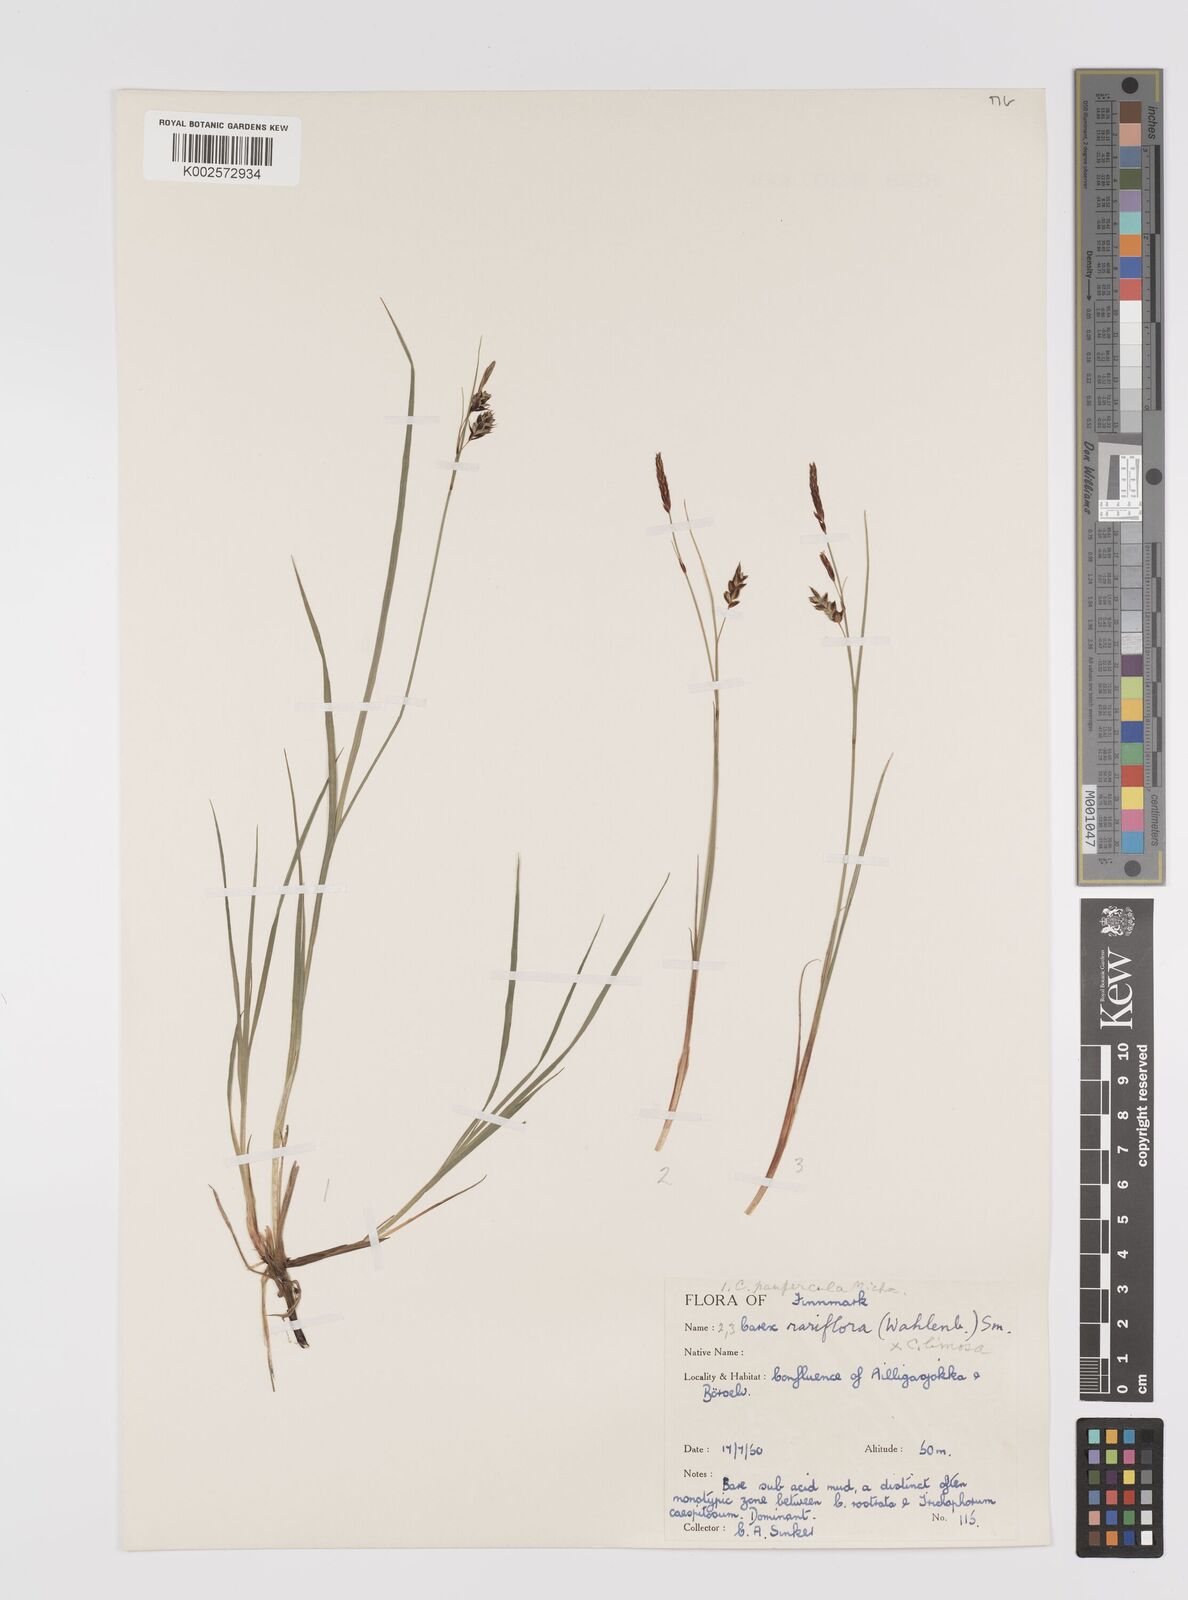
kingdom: Plantae
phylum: Tracheophyta
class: Liliopsida
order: Poales
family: Cyperaceae
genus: Carex
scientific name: Carex rariflora
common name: Loose-flowered alpine sedge
